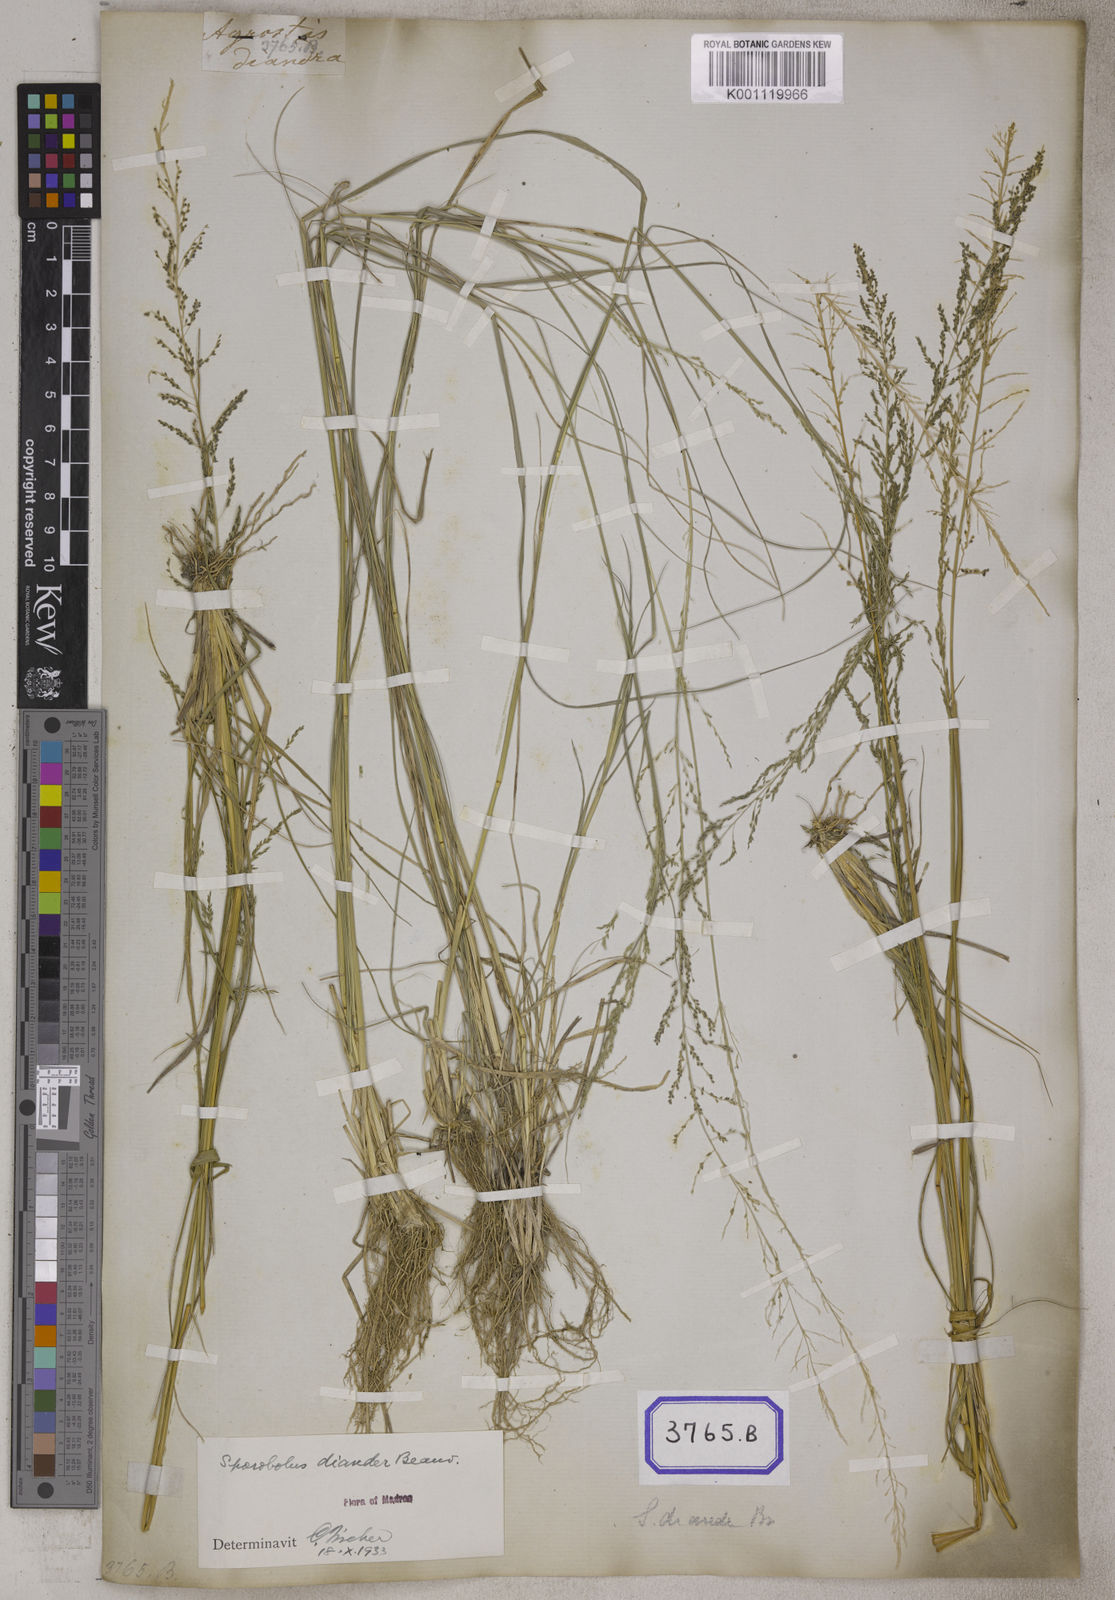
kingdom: Plantae
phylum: Tracheophyta
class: Liliopsida
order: Poales
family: Poaceae
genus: Sporobolus
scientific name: Sporobolus
